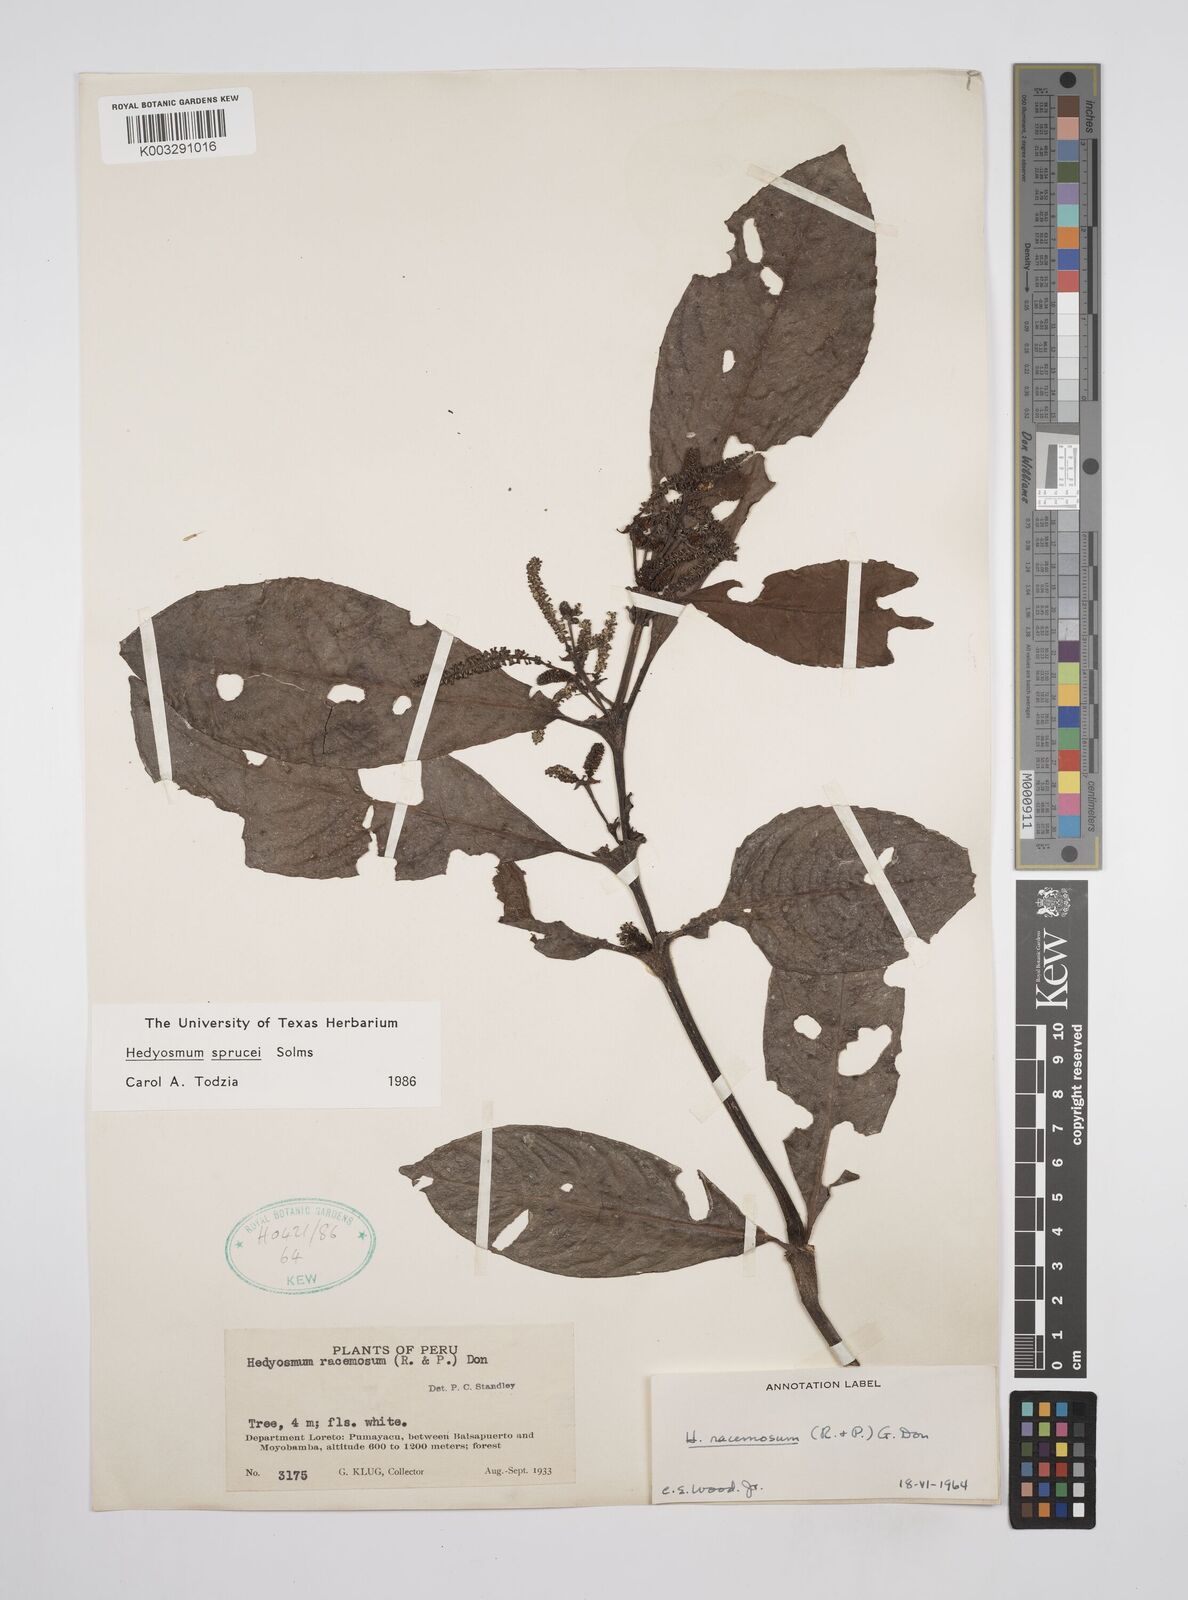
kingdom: Plantae
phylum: Tracheophyta
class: Magnoliopsida
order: Chloranthales
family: Chloranthaceae
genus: Hedyosmum
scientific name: Hedyosmum sprucei
